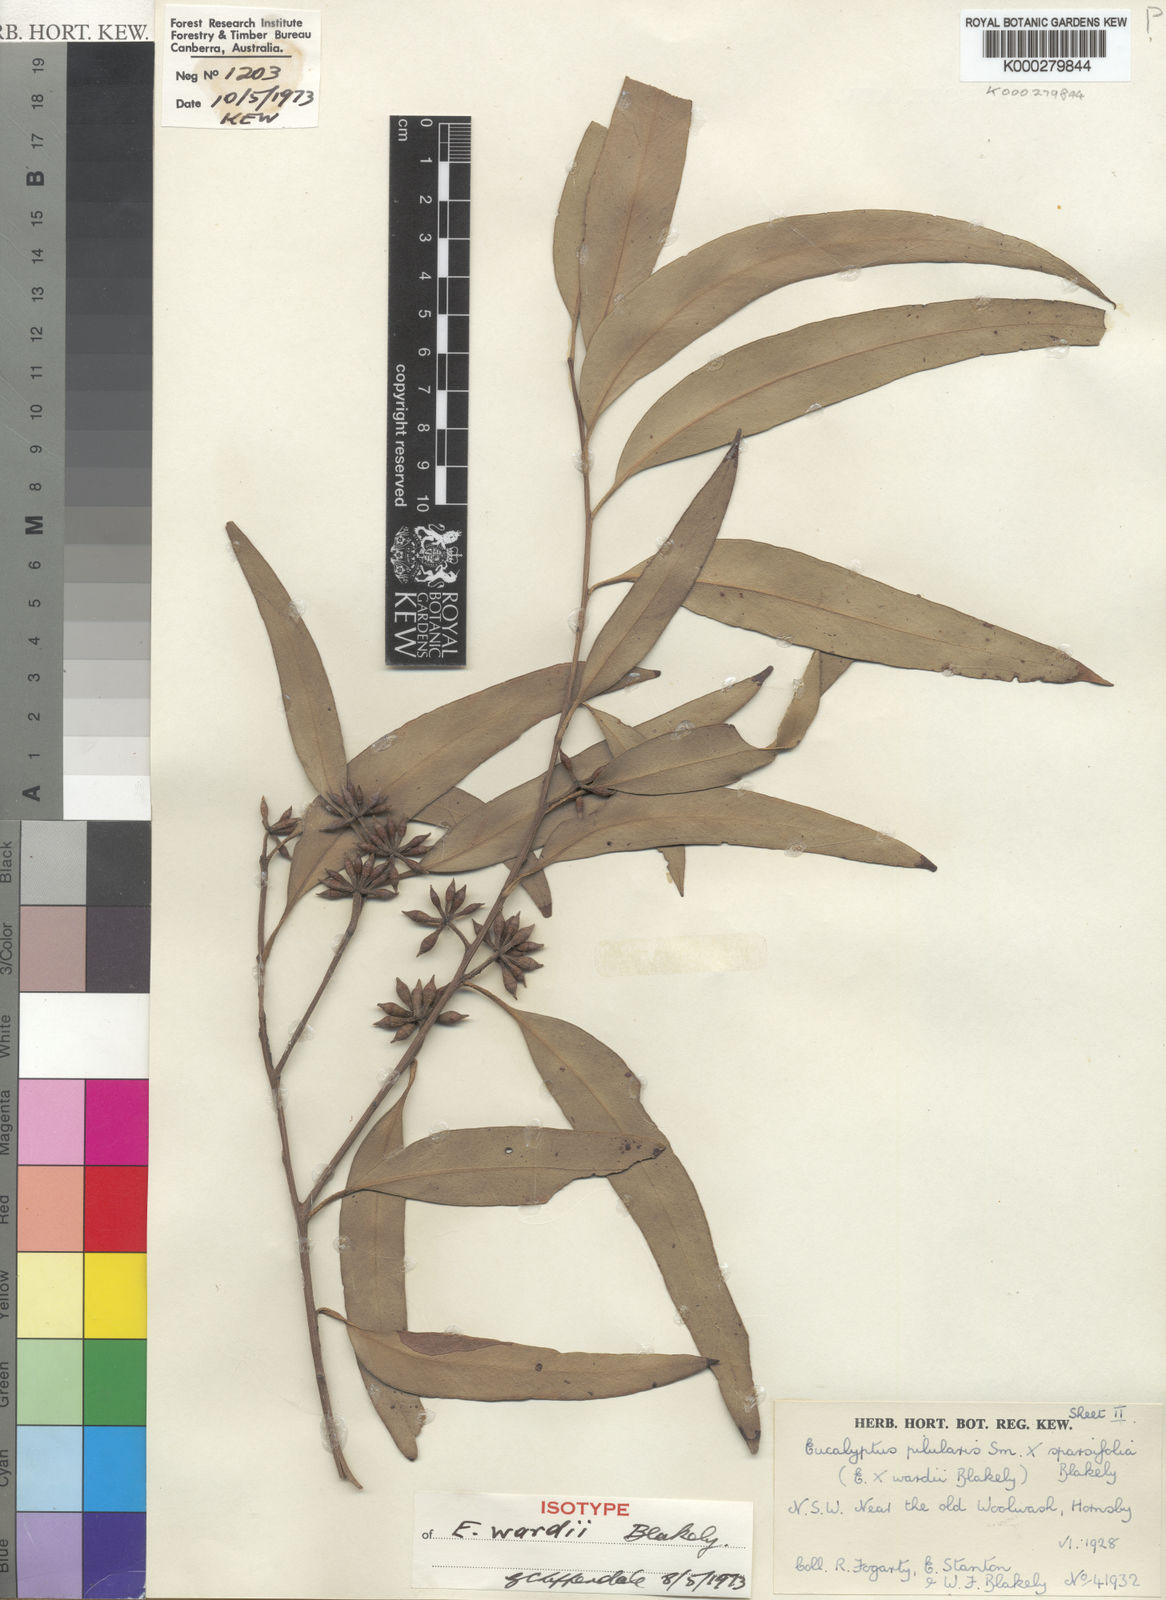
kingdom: Plantae
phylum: Tracheophyta
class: Magnoliopsida
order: Myrtales
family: Myrtaceae
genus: Eucalyptus
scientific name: Eucalyptus wardii
